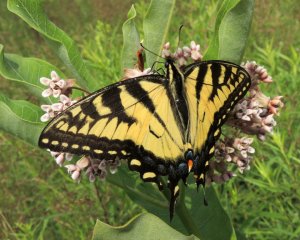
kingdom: Animalia
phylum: Arthropoda
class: Insecta
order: Lepidoptera
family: Papilionidae
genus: Pterourus
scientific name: Pterourus glaucus
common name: Eastern Tiger Swallowtail
